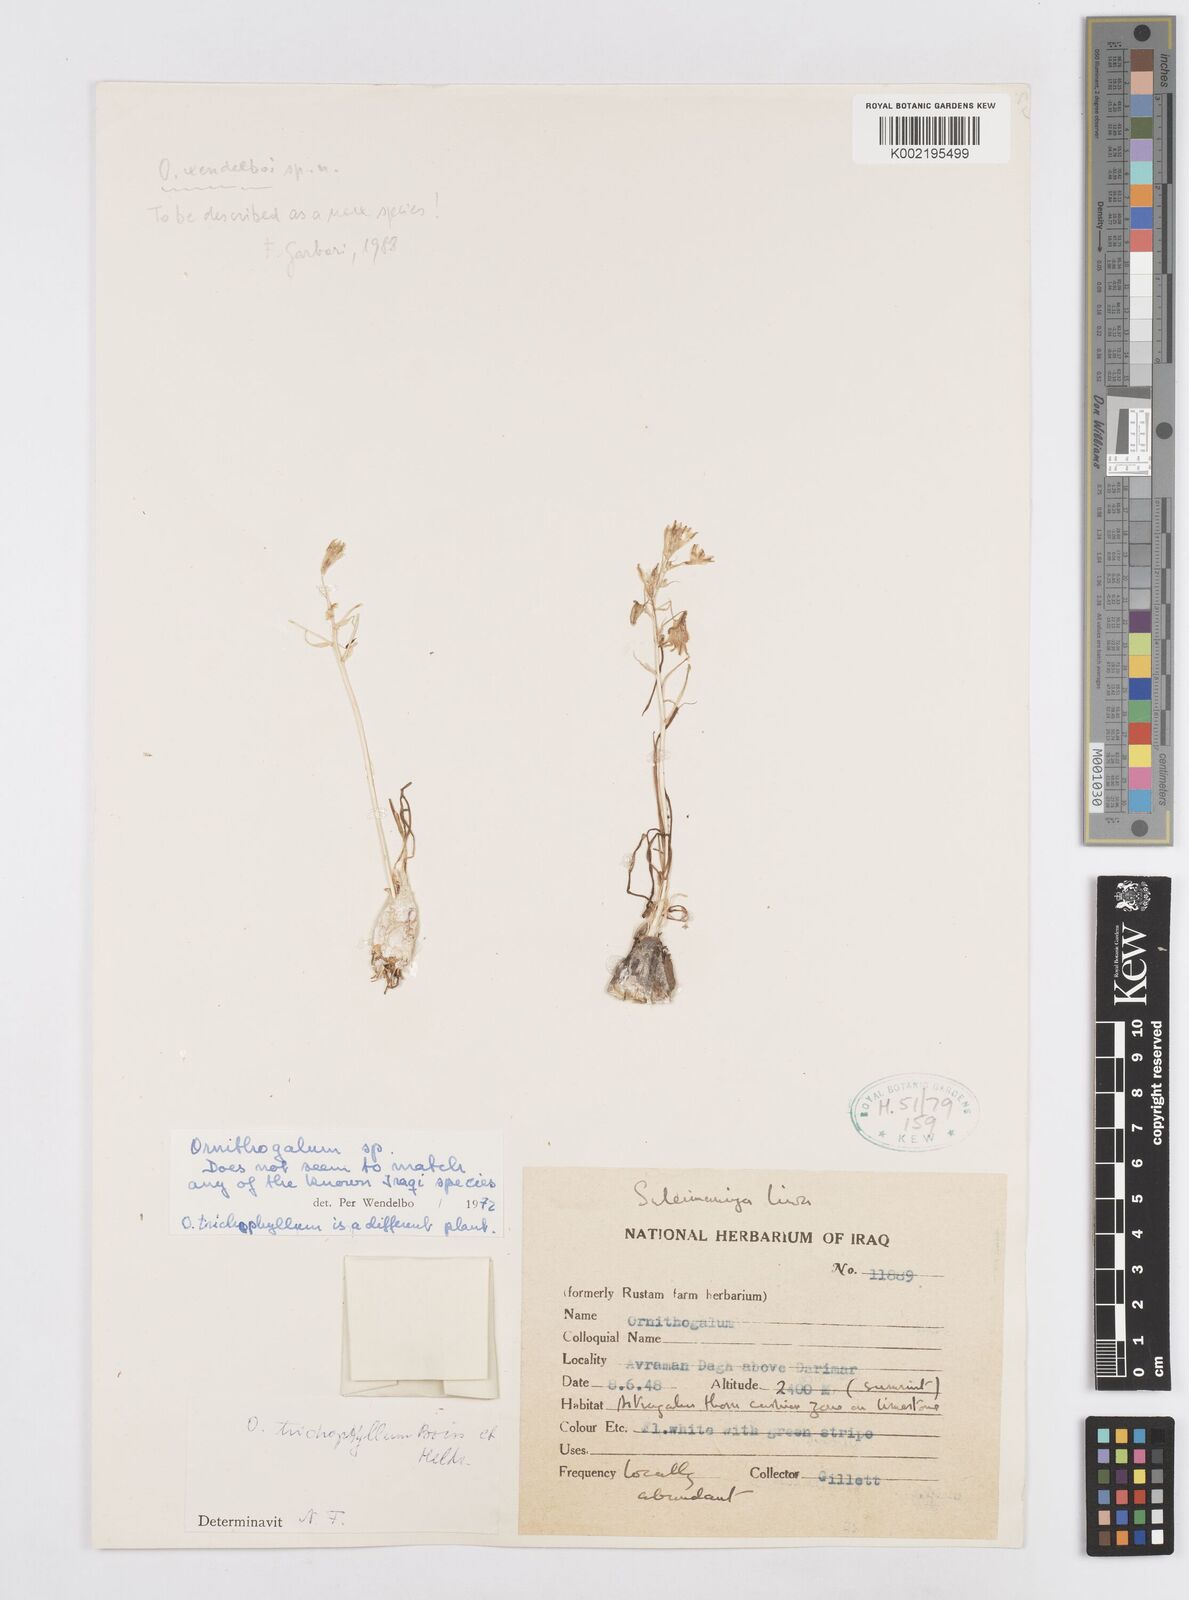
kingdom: Plantae
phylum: Tracheophyta
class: Liliopsida
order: Asparagales
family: Asparagaceae
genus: Ornithogalum
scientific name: Ornithogalum
